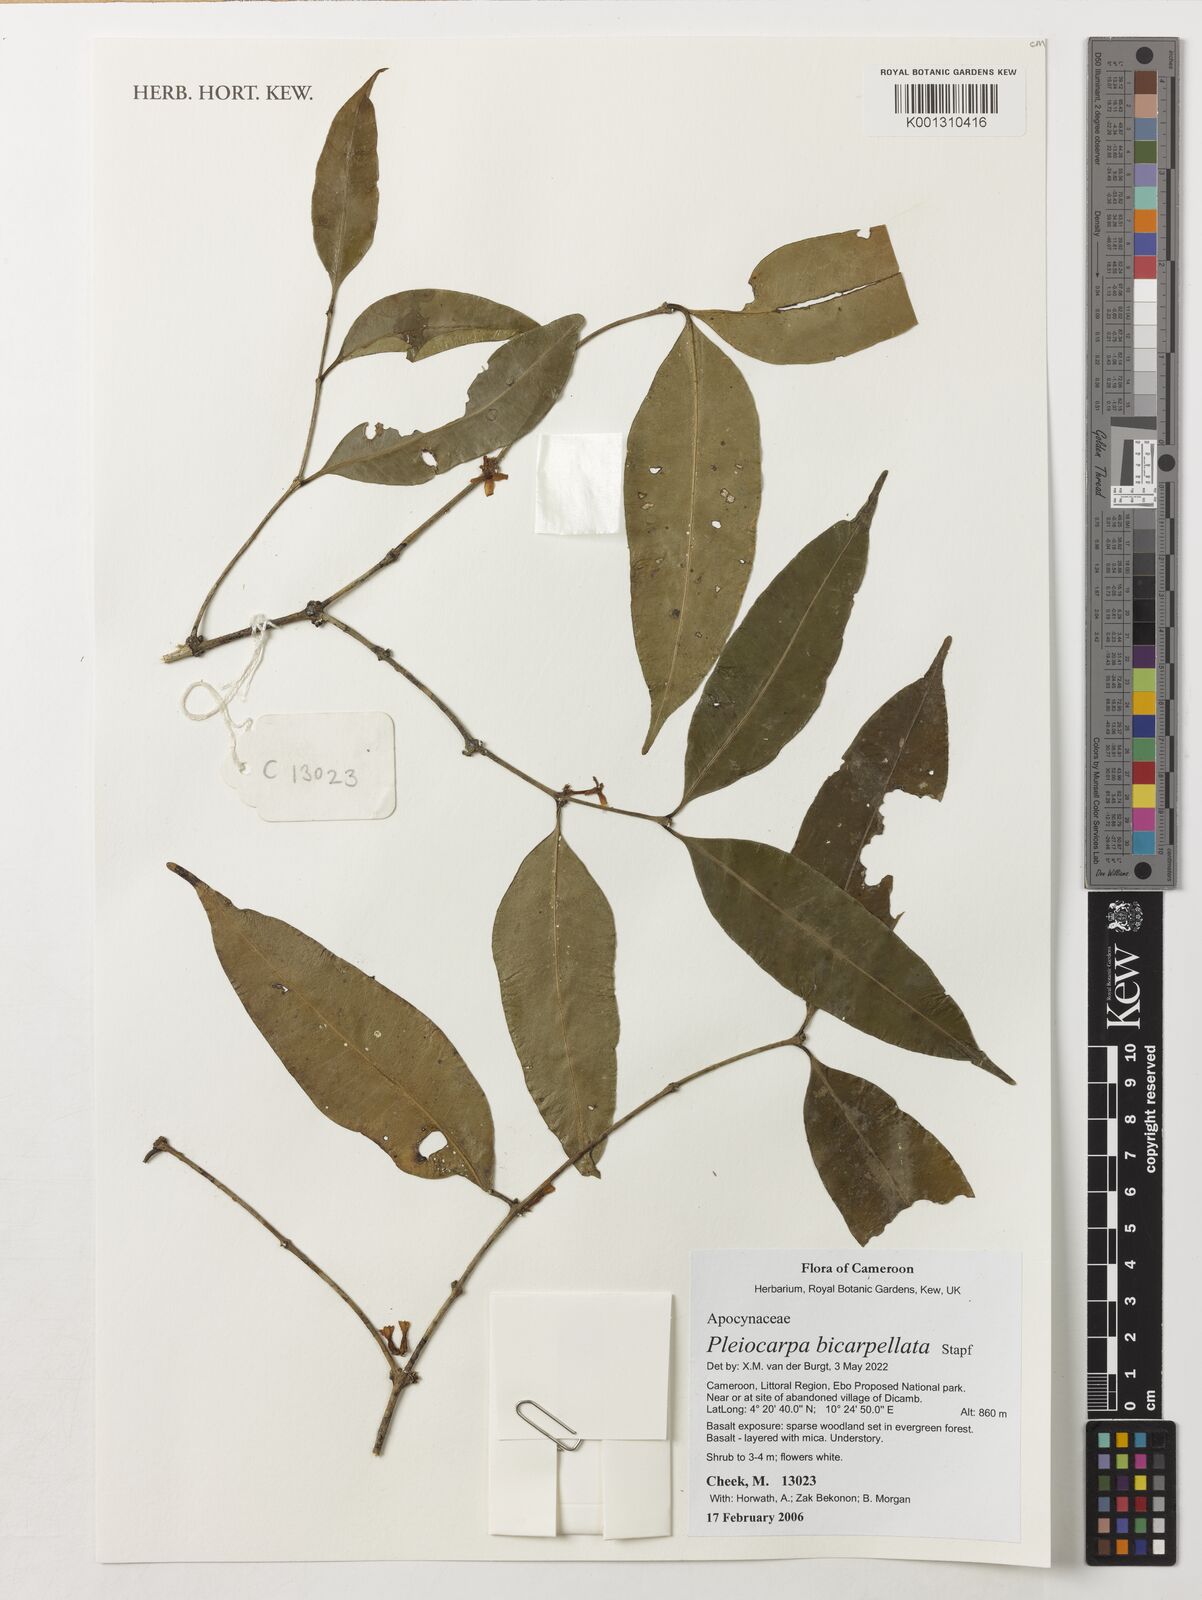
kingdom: Plantae
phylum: Tracheophyta
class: Magnoliopsida
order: Gentianales
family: Apocynaceae
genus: Pleiocarpa
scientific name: Pleiocarpa bicarpellata
